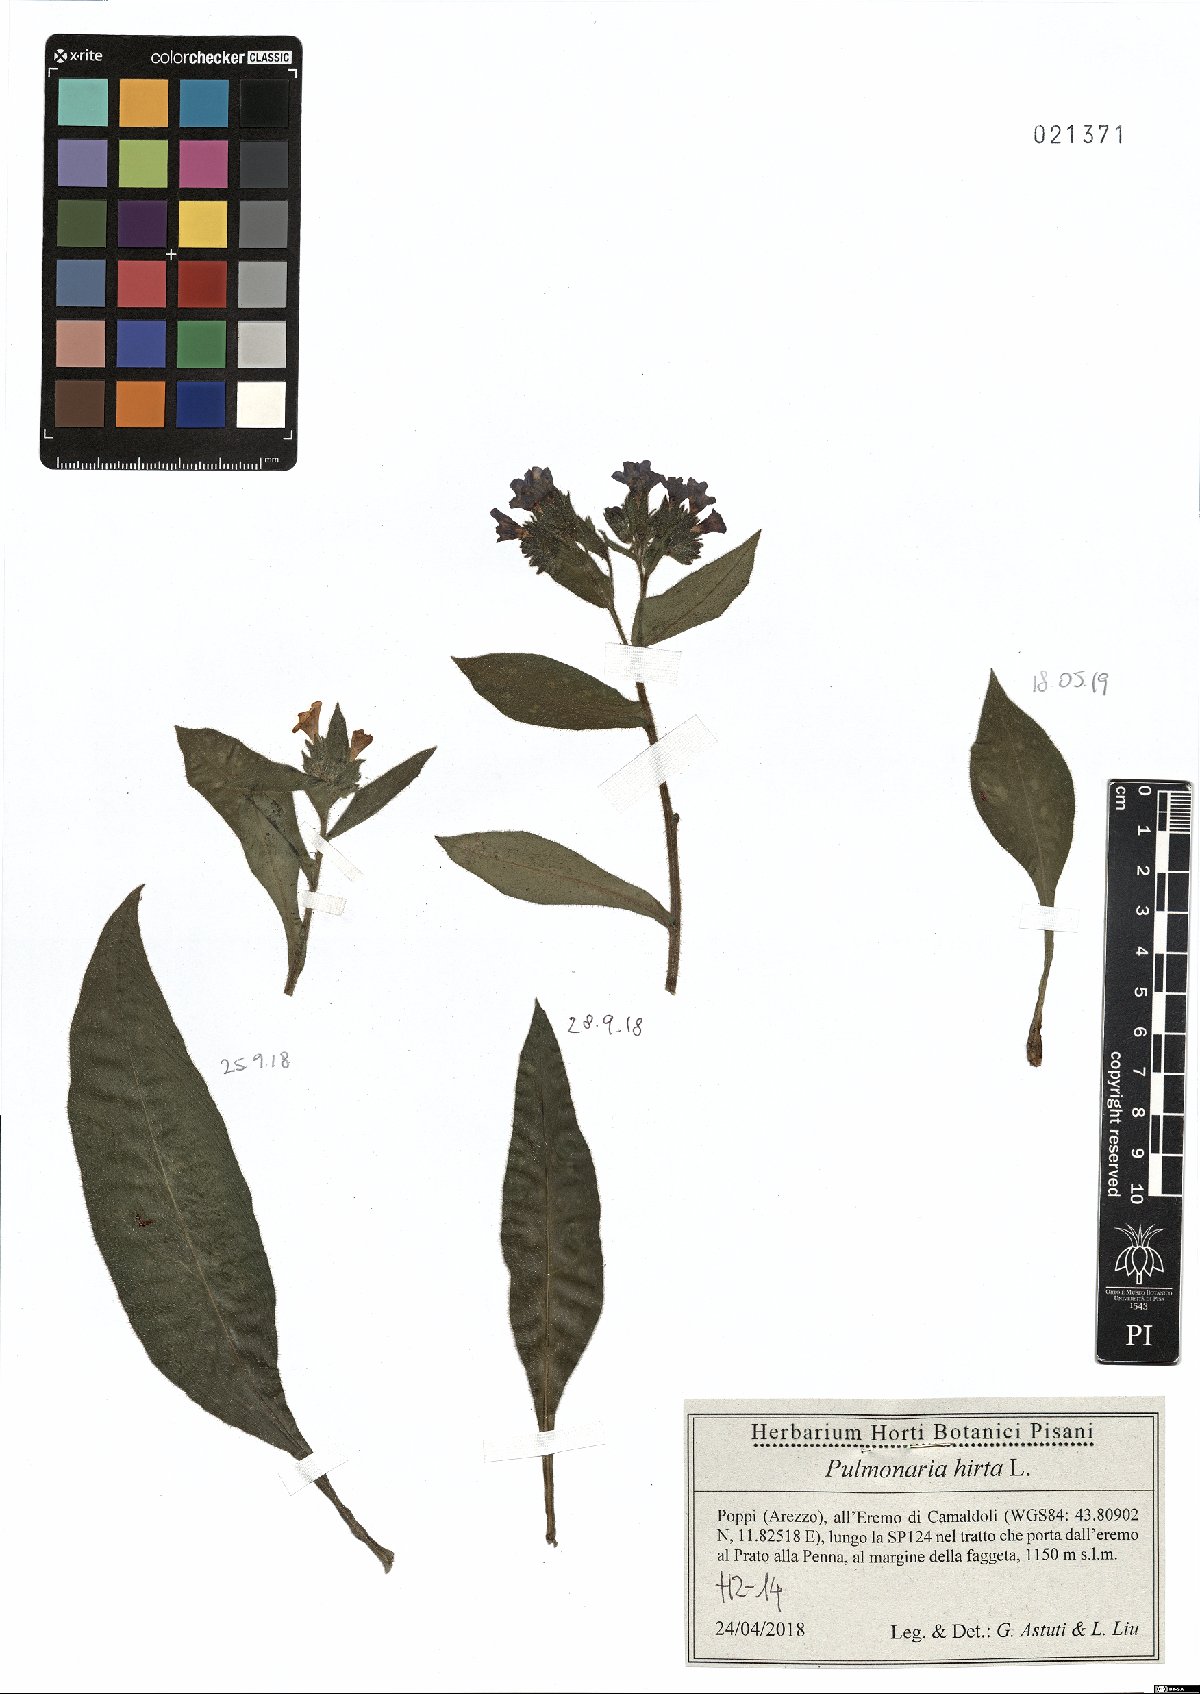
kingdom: Plantae
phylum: Tracheophyta
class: Magnoliopsida
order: Boraginales
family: Boraginaceae
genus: Pulmonaria
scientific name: Pulmonaria hirta
